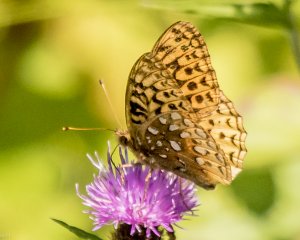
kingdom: Animalia
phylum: Arthropoda
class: Insecta
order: Lepidoptera
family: Nymphalidae
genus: Speyeria
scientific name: Speyeria cybele
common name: Great Spangled Fritillary
